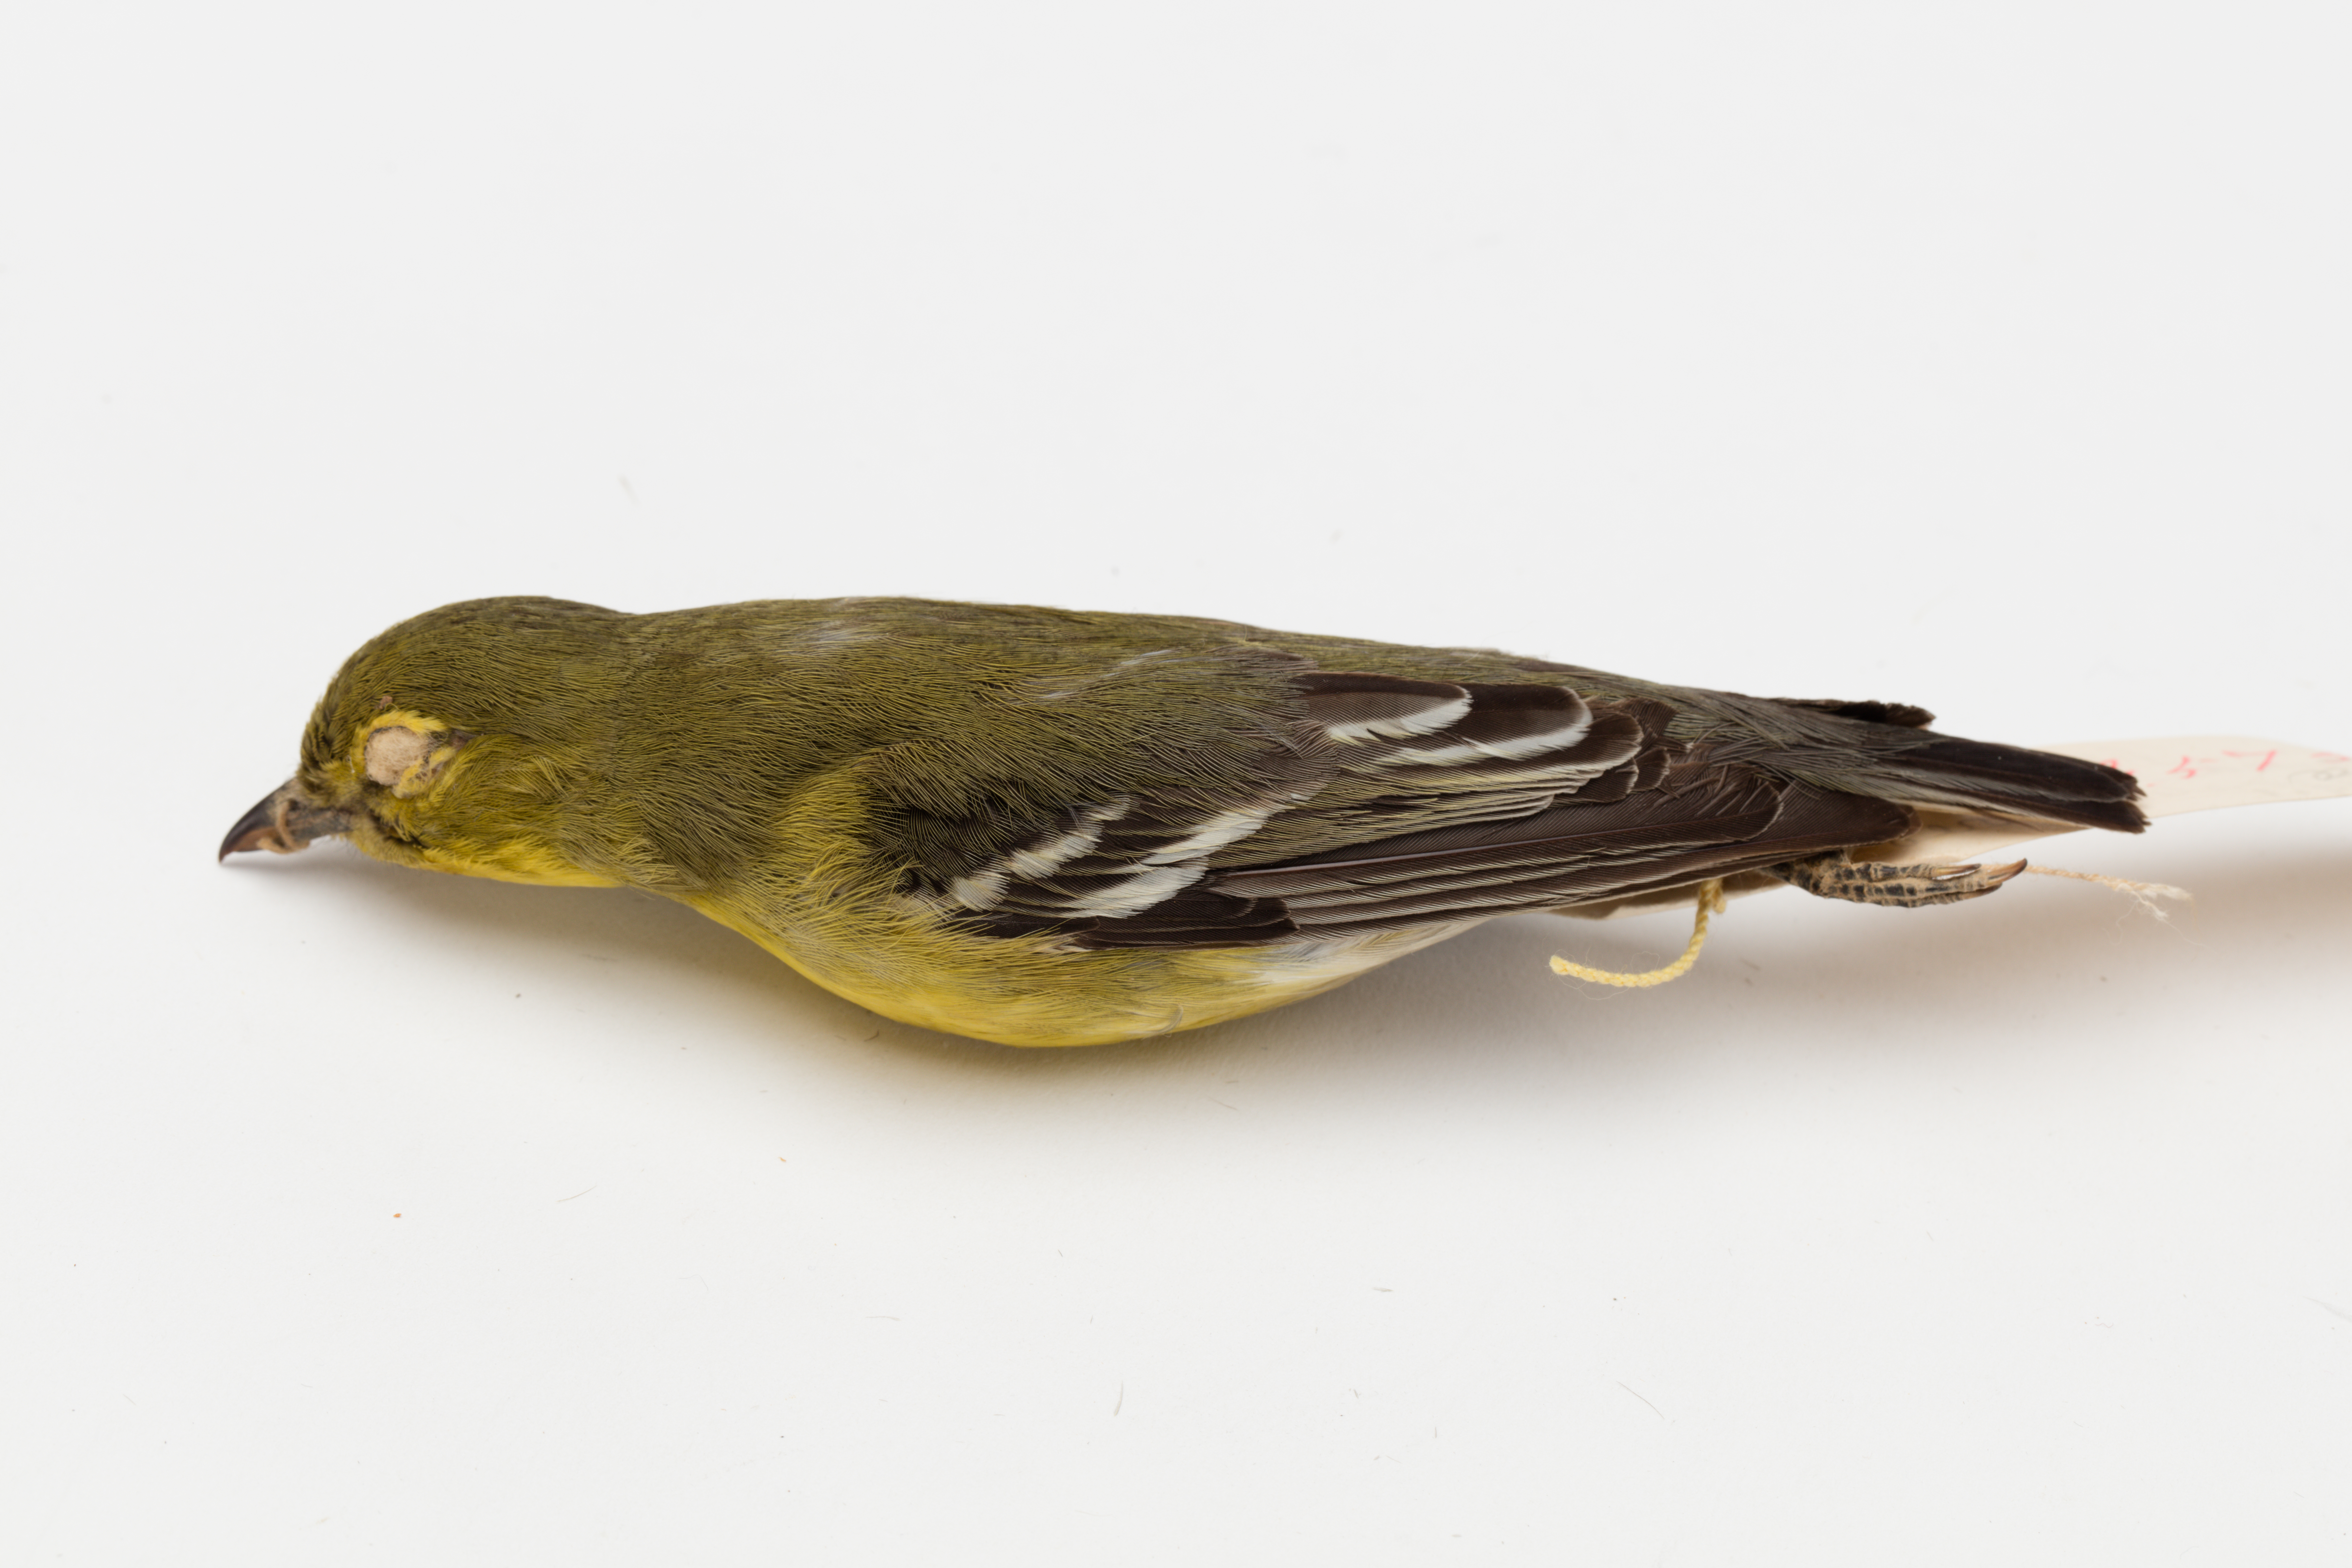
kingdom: Animalia
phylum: Chordata
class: Aves
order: Passeriformes
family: Vireonidae
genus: Vireo
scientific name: Vireo flavifrons
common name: Yellow-throated vireo
